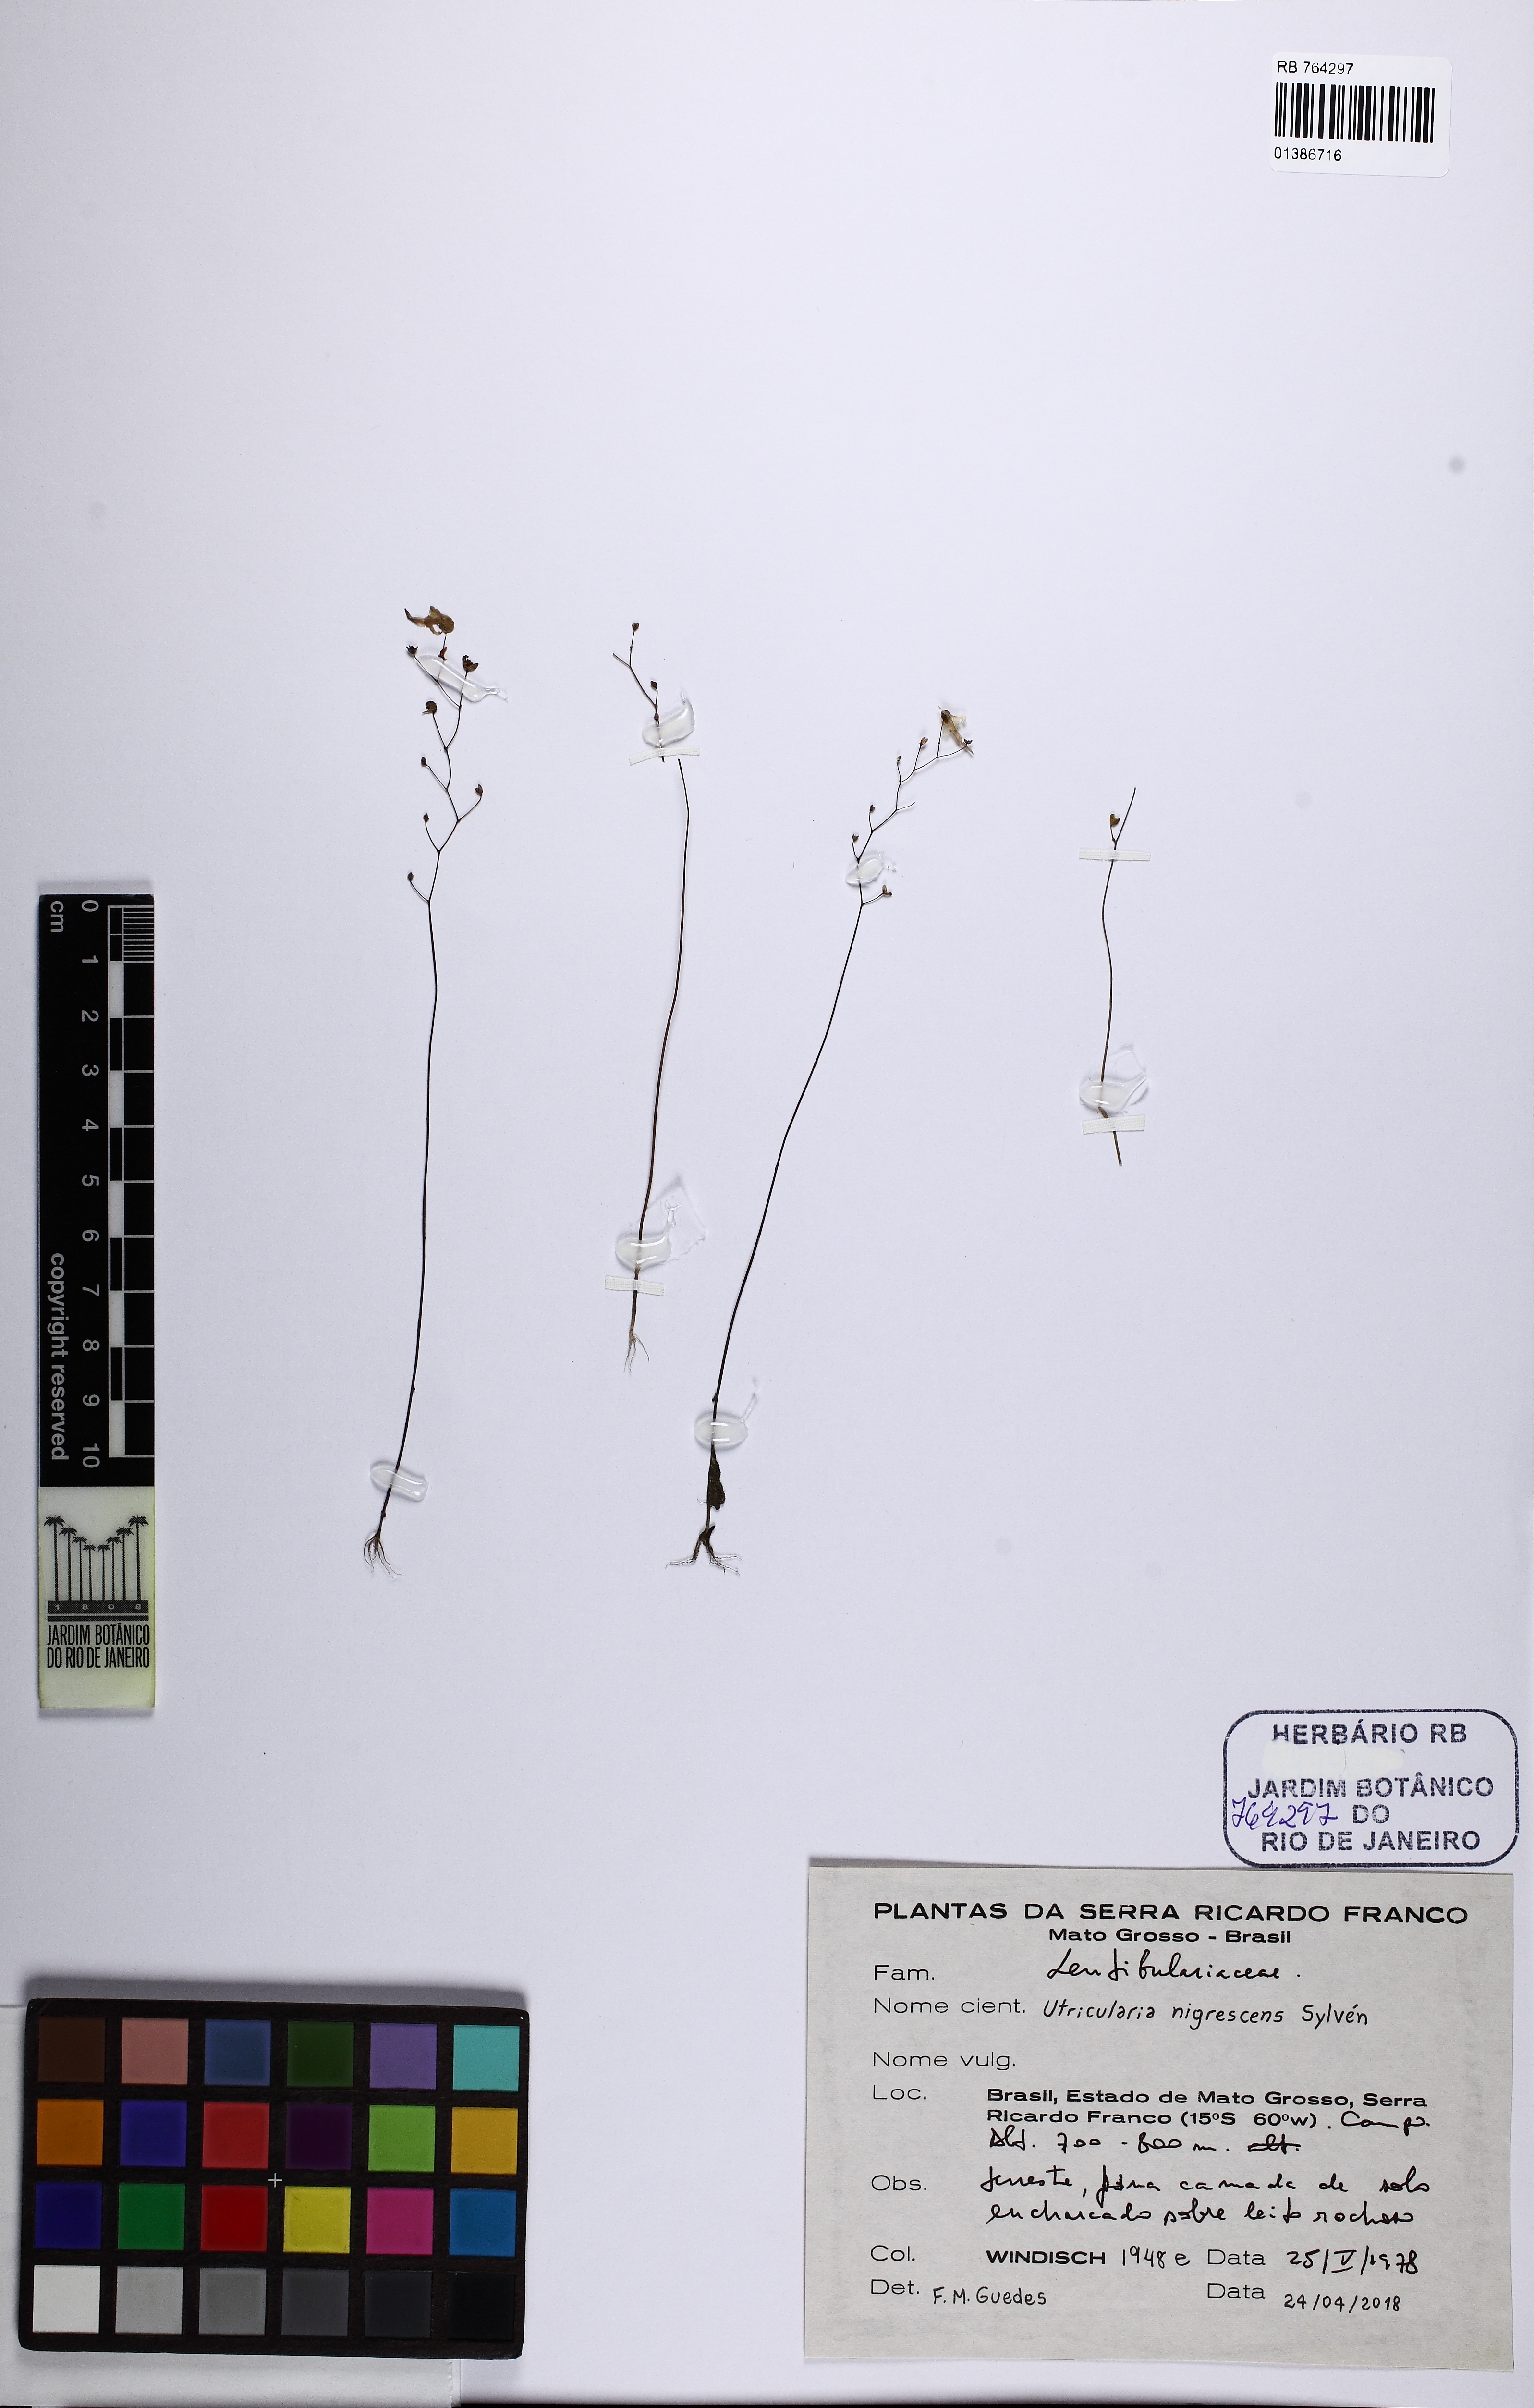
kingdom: Plantae
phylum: Tracheophyta
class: Magnoliopsida
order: Lamiales
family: Lentibulariaceae
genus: Utricularia
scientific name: Utricularia nigrescens
